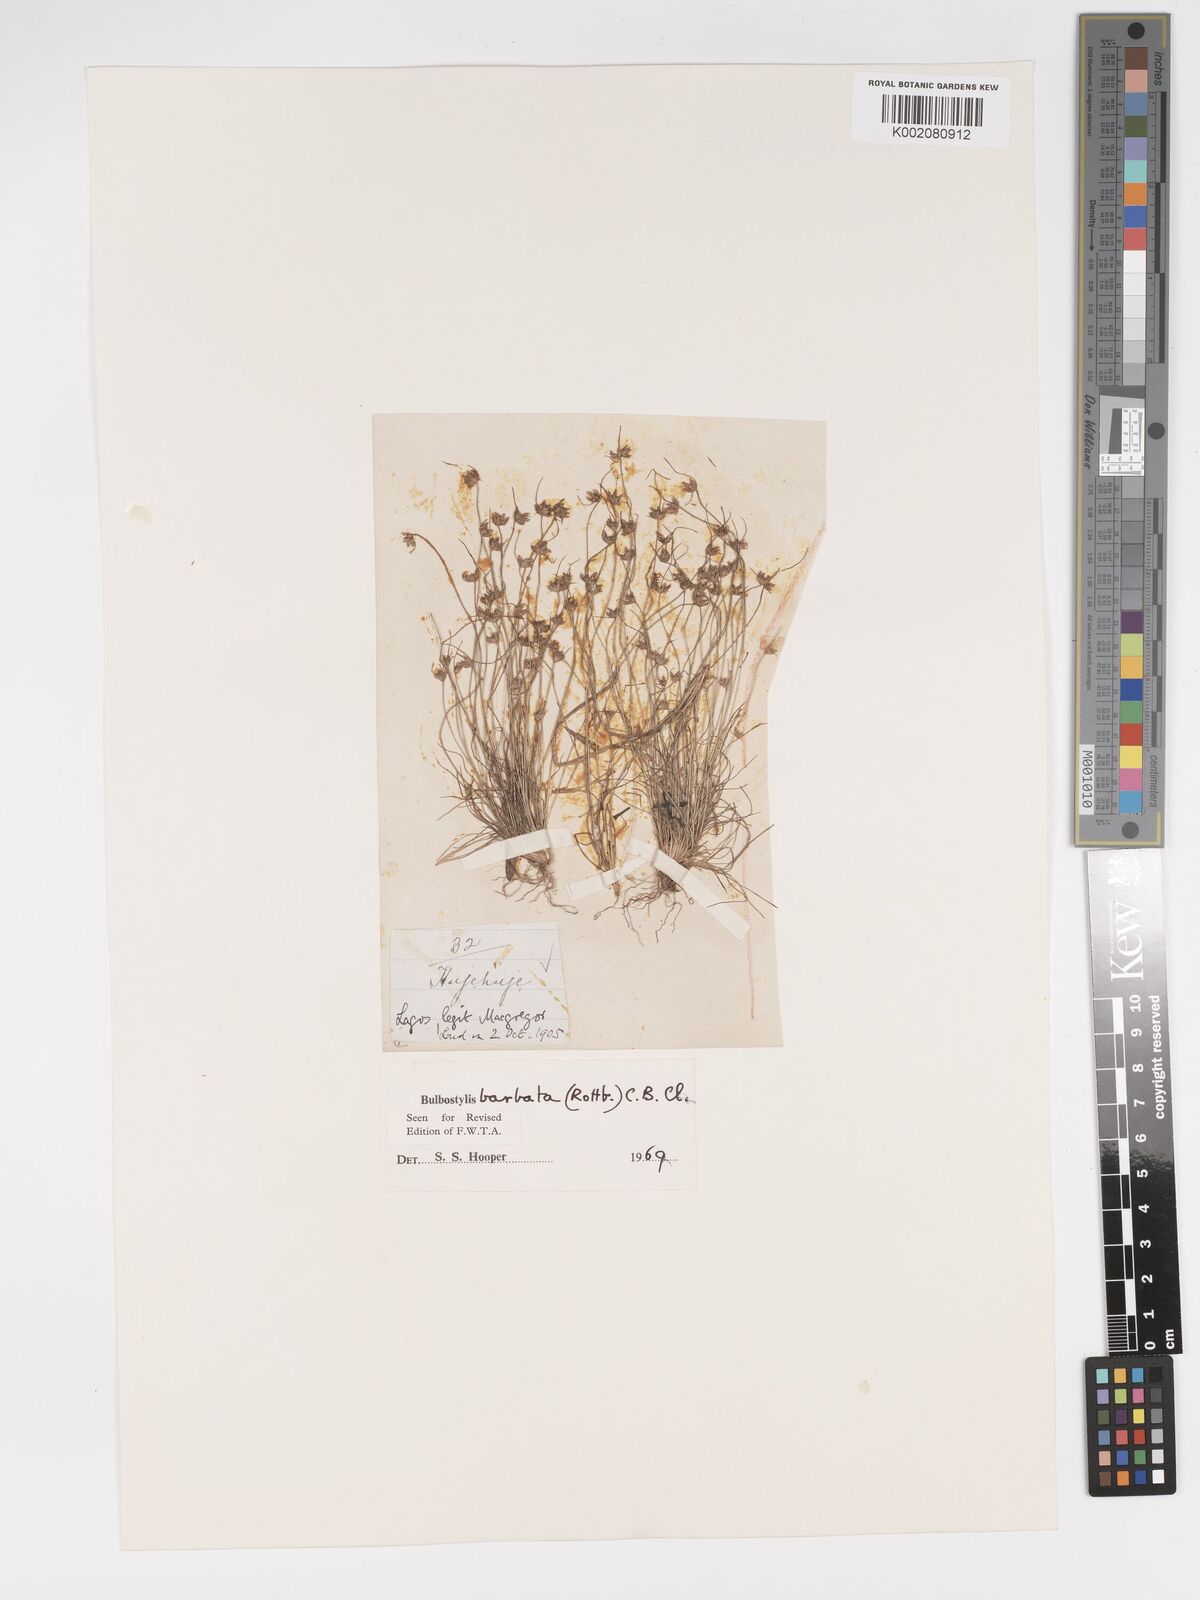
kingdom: Plantae
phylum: Tracheophyta
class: Liliopsida
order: Poales
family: Cyperaceae
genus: Bulbostylis
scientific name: Bulbostylis barbata
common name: Watergrass
